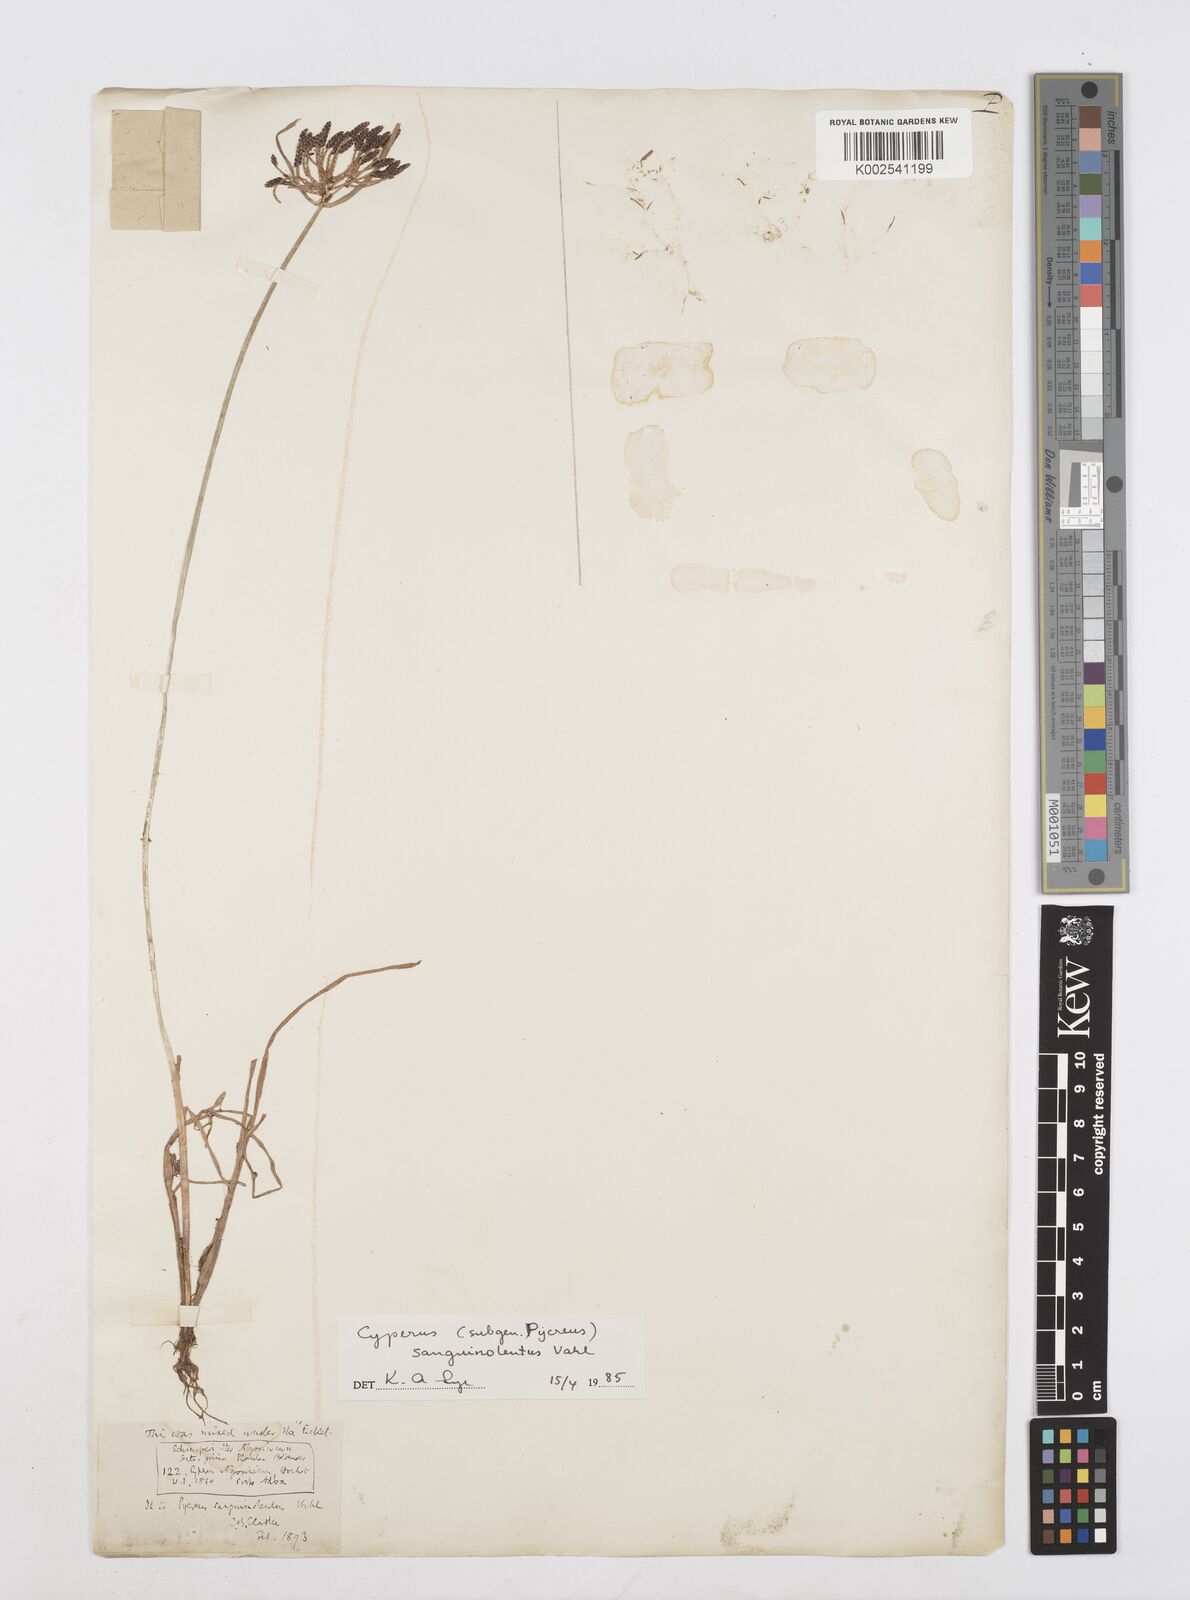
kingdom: Plantae
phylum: Tracheophyta
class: Liliopsida
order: Poales
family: Cyperaceae
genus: Cyperus
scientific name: Cyperus sanguinolentus
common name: Purpleglume flatsedge
